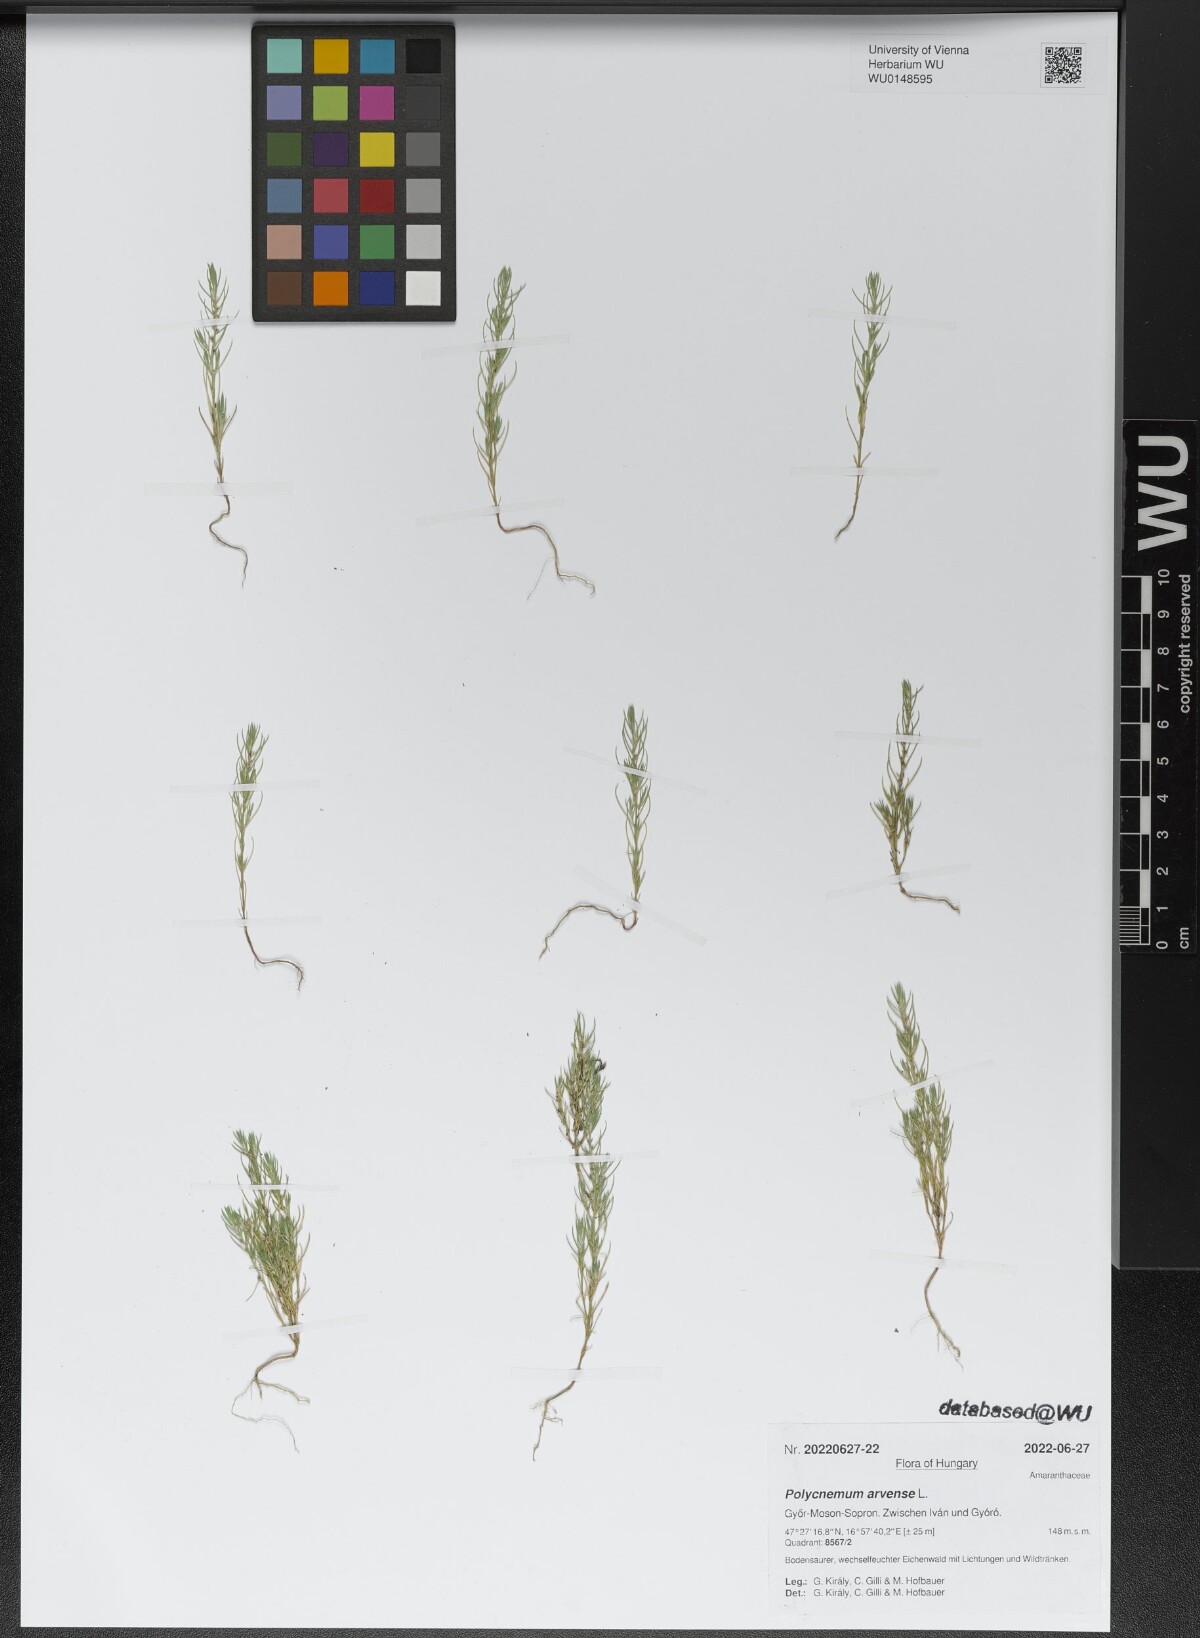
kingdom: Plantae
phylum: Tracheophyta
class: Magnoliopsida
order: Caryophyllales
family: Amaranthaceae
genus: Polycnemum
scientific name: Polycnemum arvense
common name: Soft needleleaf
